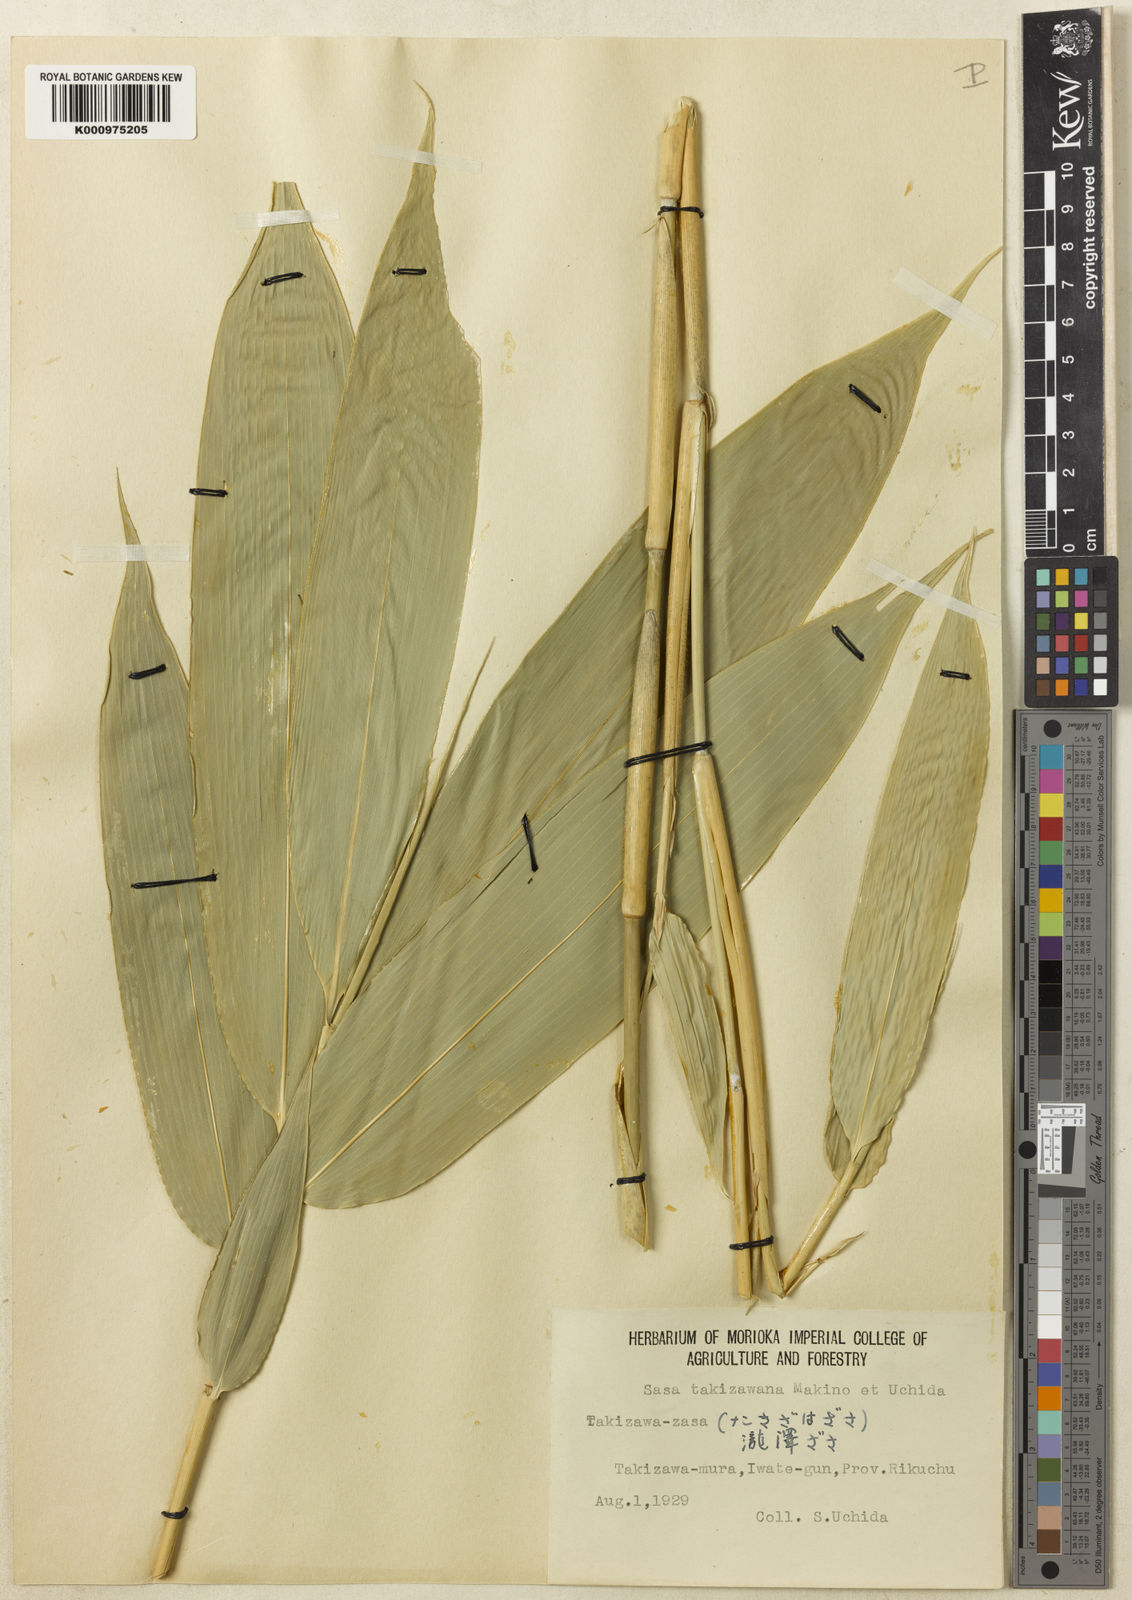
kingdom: Plantae
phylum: Tracheophyta
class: Liliopsida
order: Poales
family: Poaceae
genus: Sasa
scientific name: Sasa takizawana
